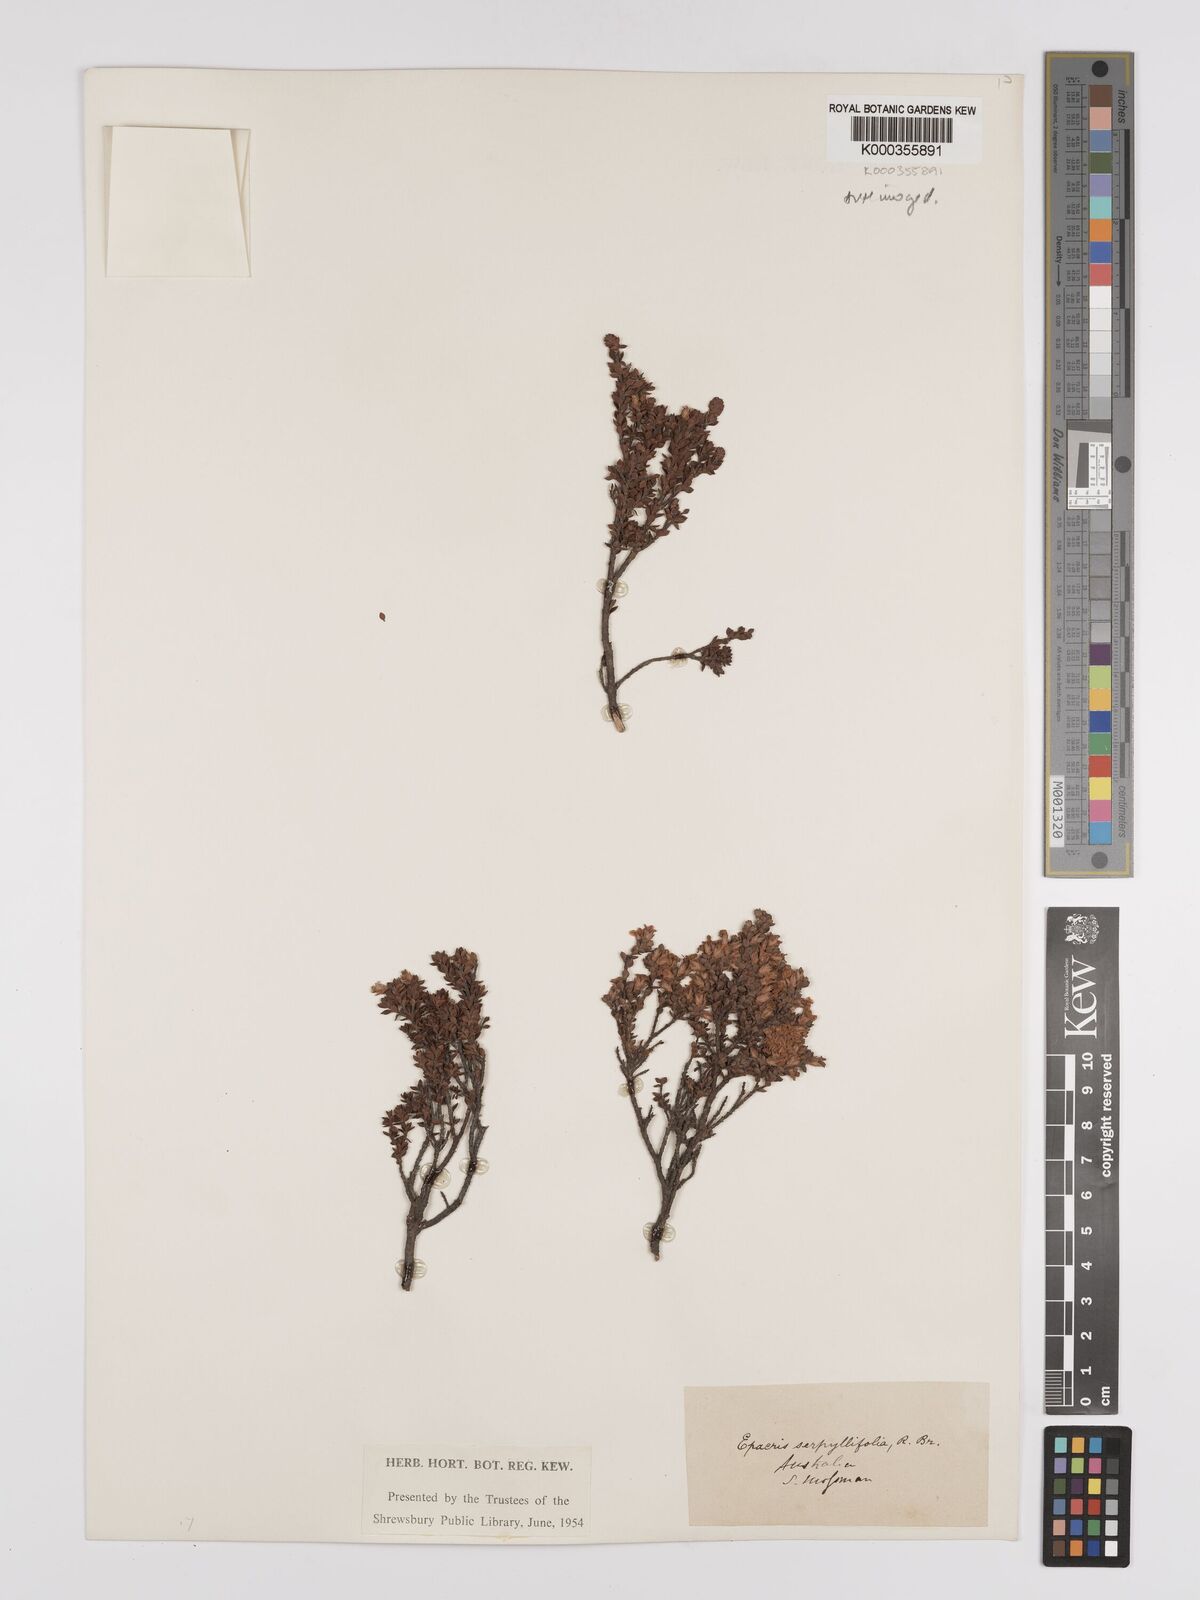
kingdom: Plantae
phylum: Tracheophyta
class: Magnoliopsida
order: Ericales
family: Ericaceae
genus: Epacris
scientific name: Epacris serpyllifolia
